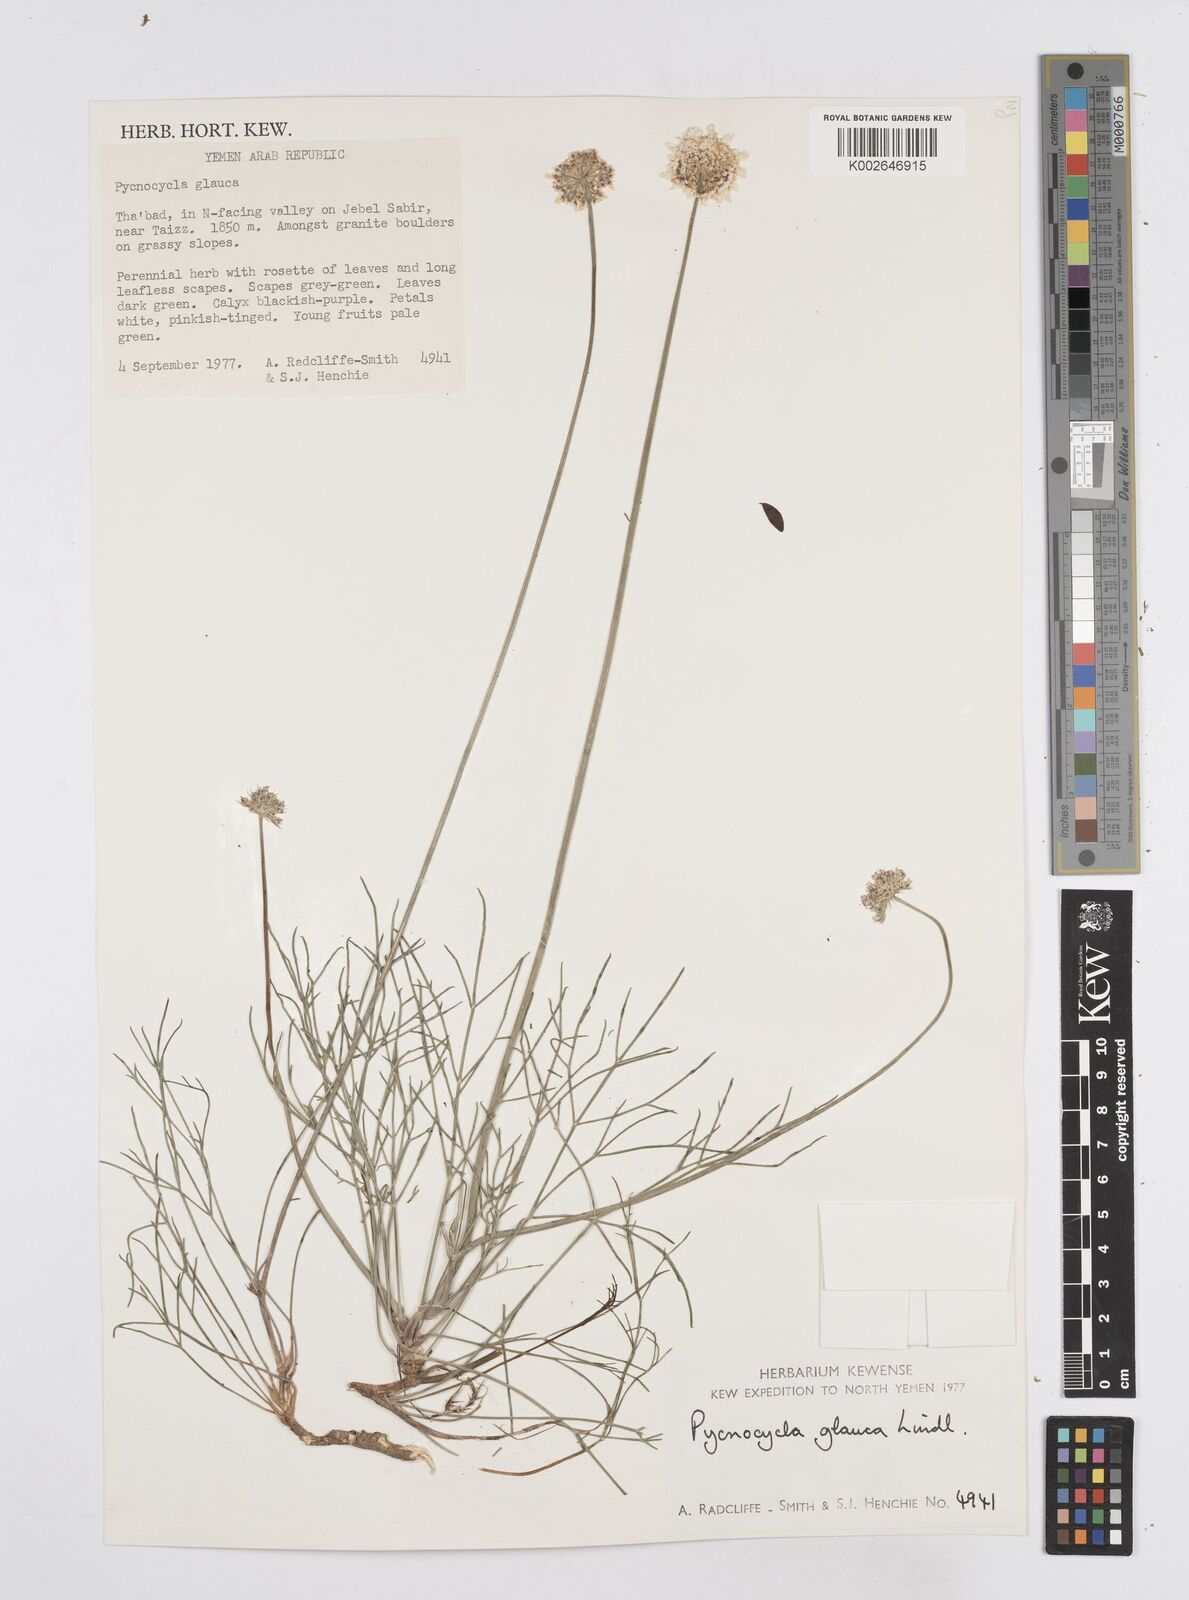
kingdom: Plantae
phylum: Tracheophyta
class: Magnoliopsida
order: Apiales
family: Apiaceae
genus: Pycnocycla
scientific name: Pycnocycla glauca
